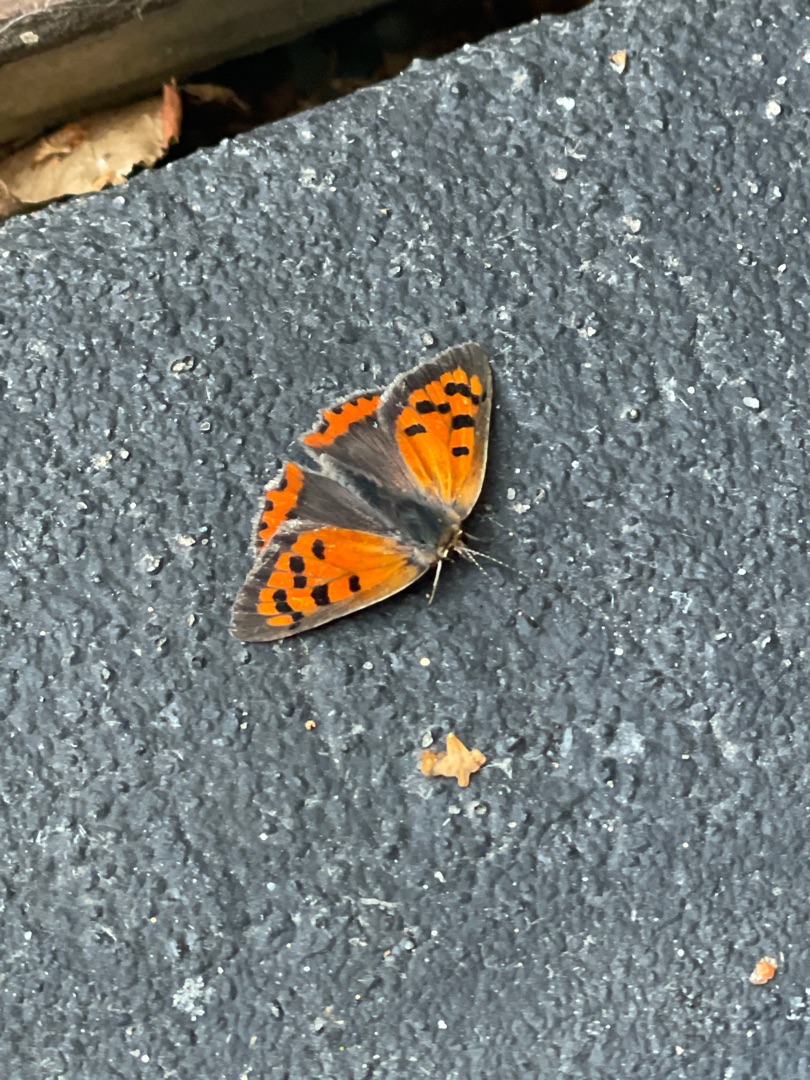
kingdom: Animalia
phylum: Arthropoda
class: Insecta
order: Lepidoptera
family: Lycaenidae
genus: Lycaena
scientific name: Lycaena phlaeas
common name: Lille ildfugl
